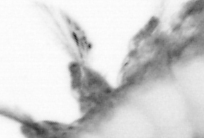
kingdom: Animalia
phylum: Annelida
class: Polychaeta
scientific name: Polychaeta
